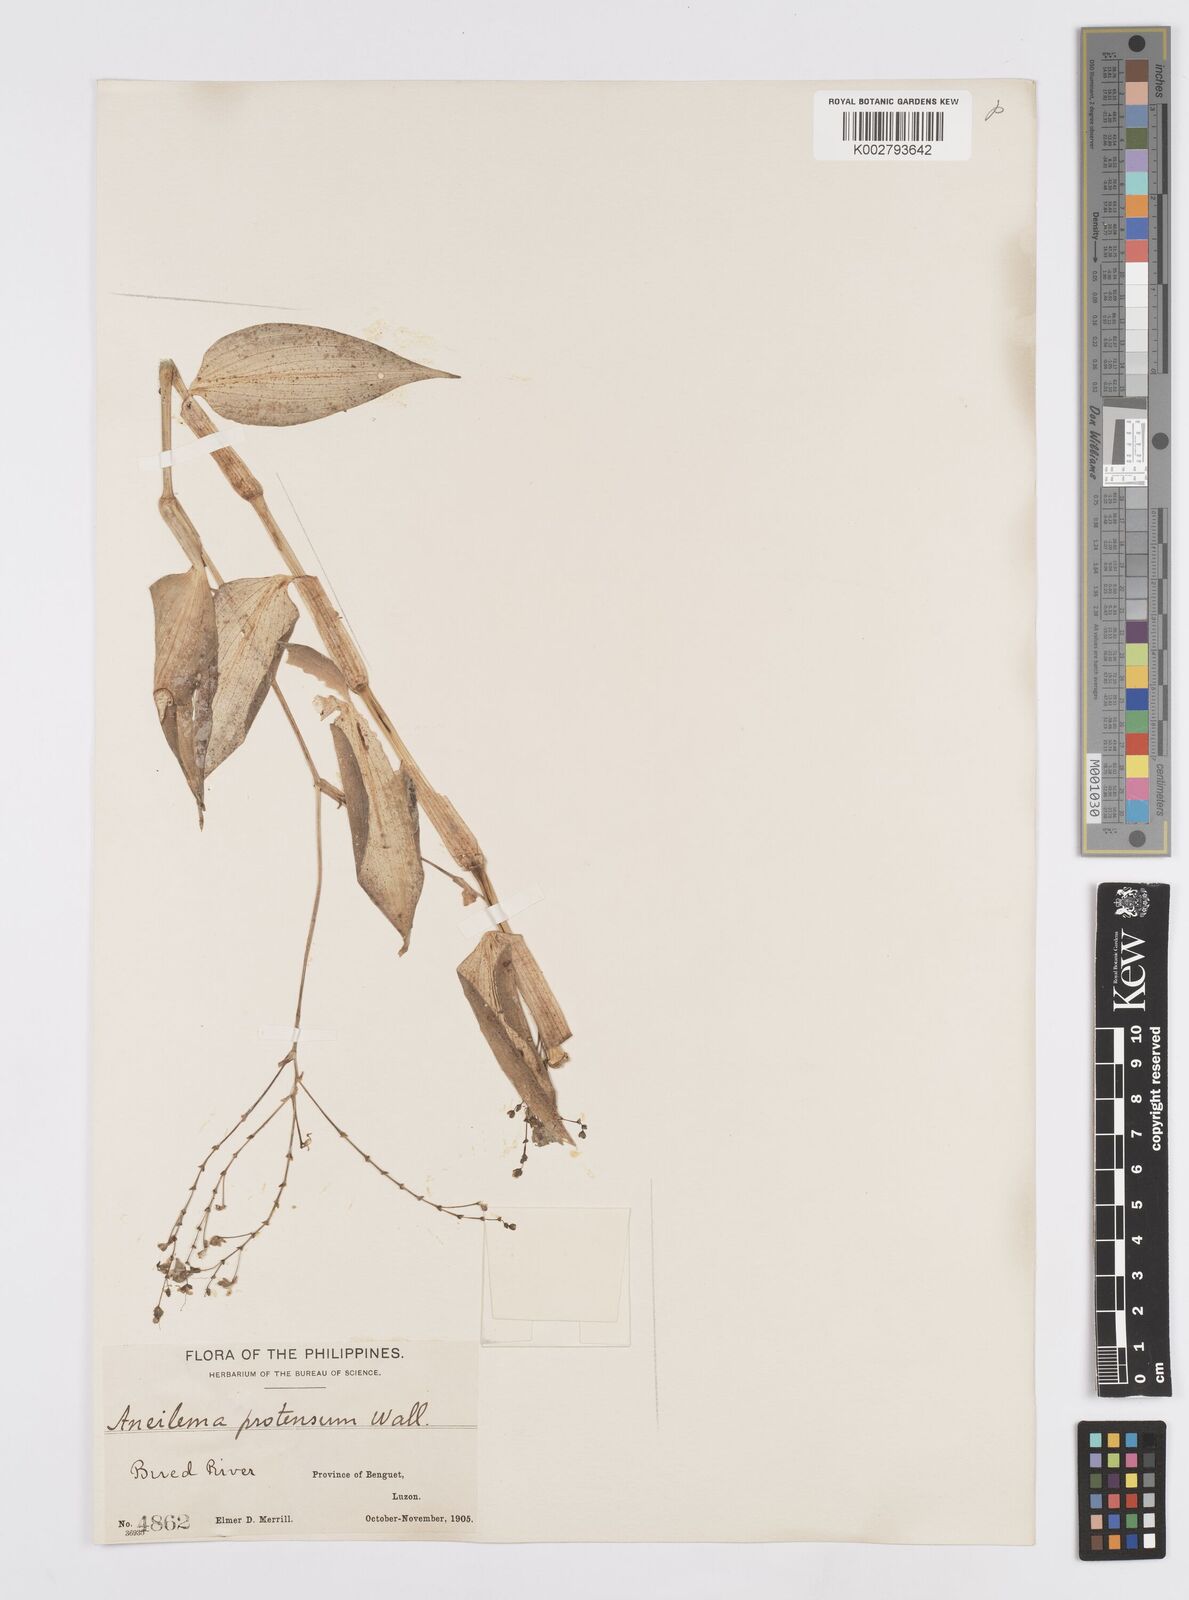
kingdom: Plantae
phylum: Tracheophyta
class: Liliopsida
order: Commelinales
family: Commelinaceae
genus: Murdannia
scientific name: Murdannia
